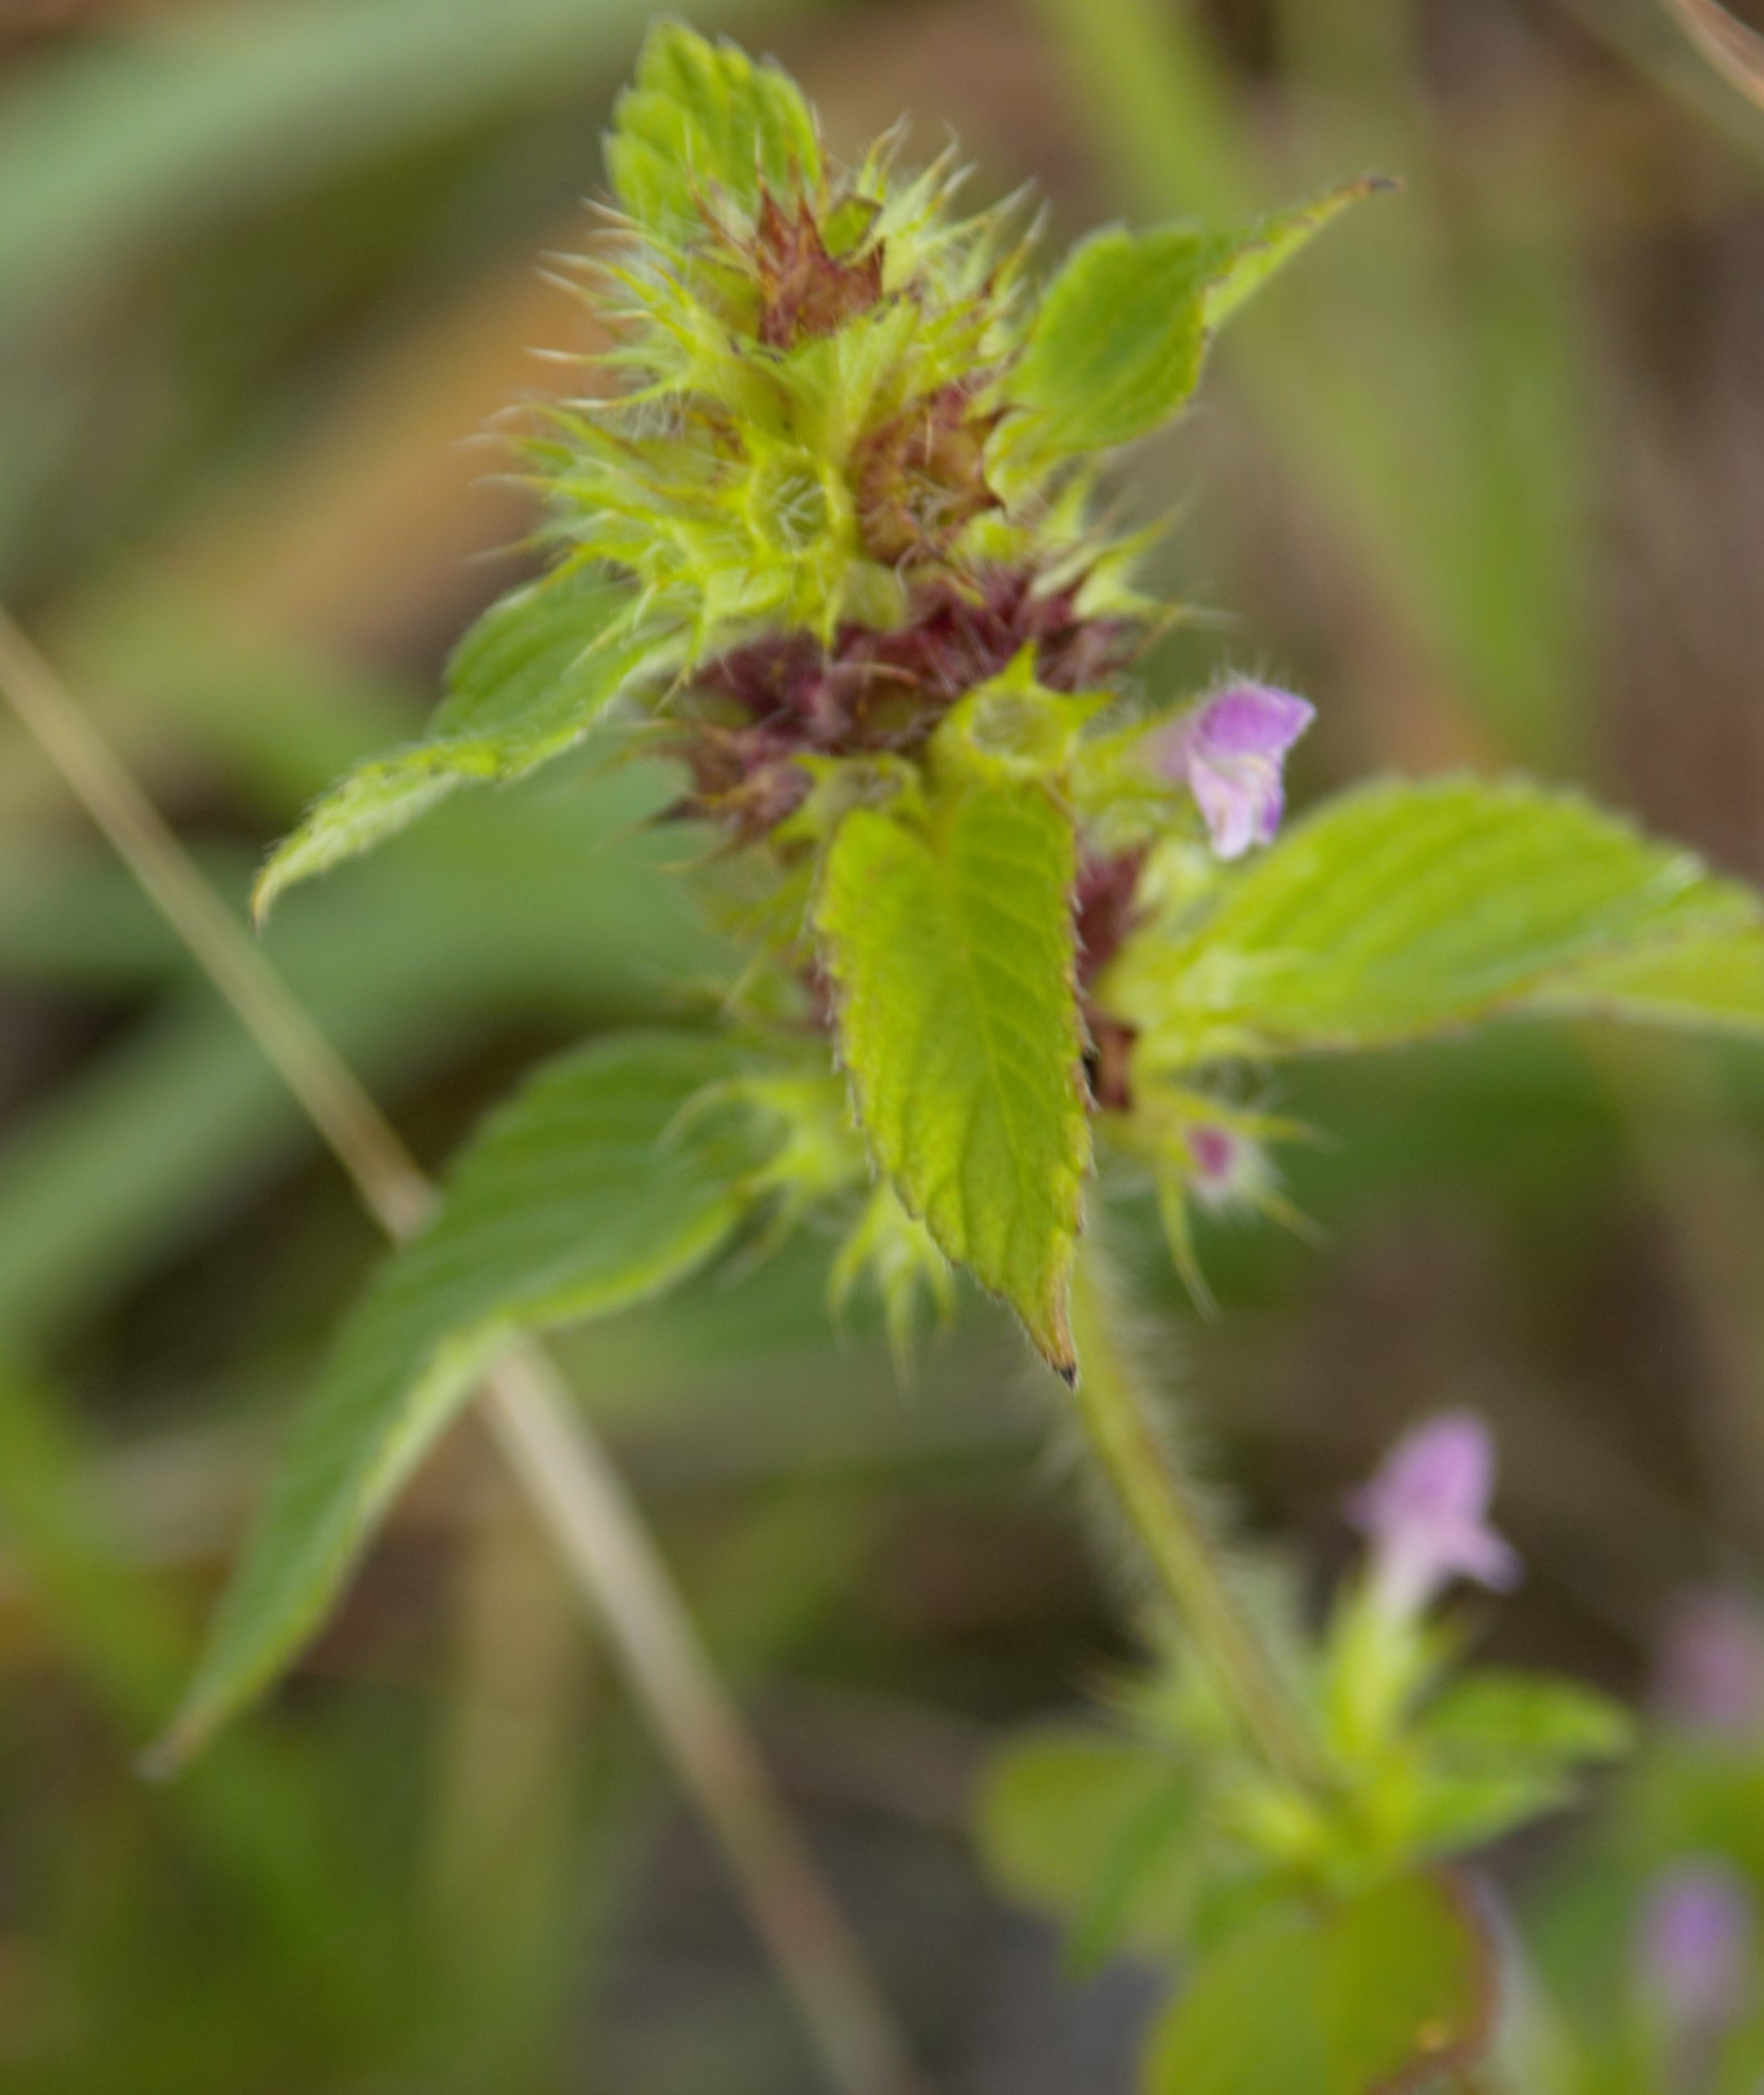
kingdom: Plantae
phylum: Tracheophyta
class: Magnoliopsida
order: Lamiales
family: Lamiaceae
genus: Galeopsis
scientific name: Galeopsis bifida
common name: Skov-hanekro
